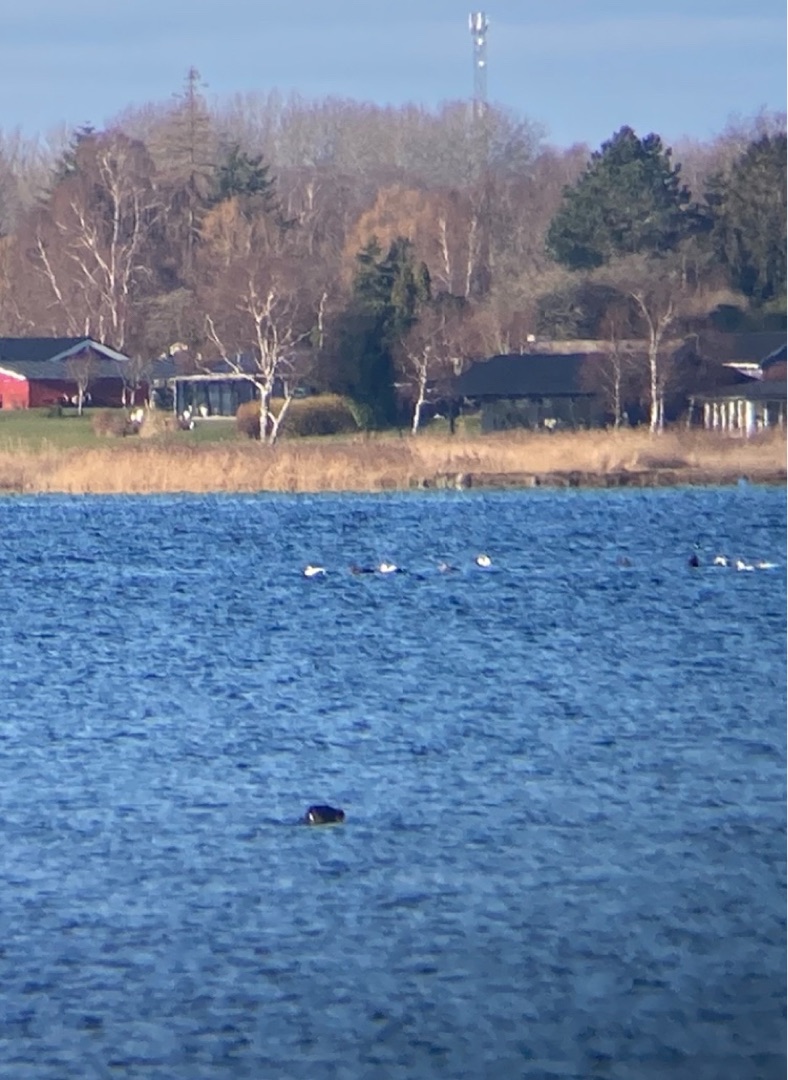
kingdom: Animalia
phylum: Chordata
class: Mammalia
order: Carnivora
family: Phocidae
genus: Phoca
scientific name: Phoca vitulina
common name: Spættet sæl
